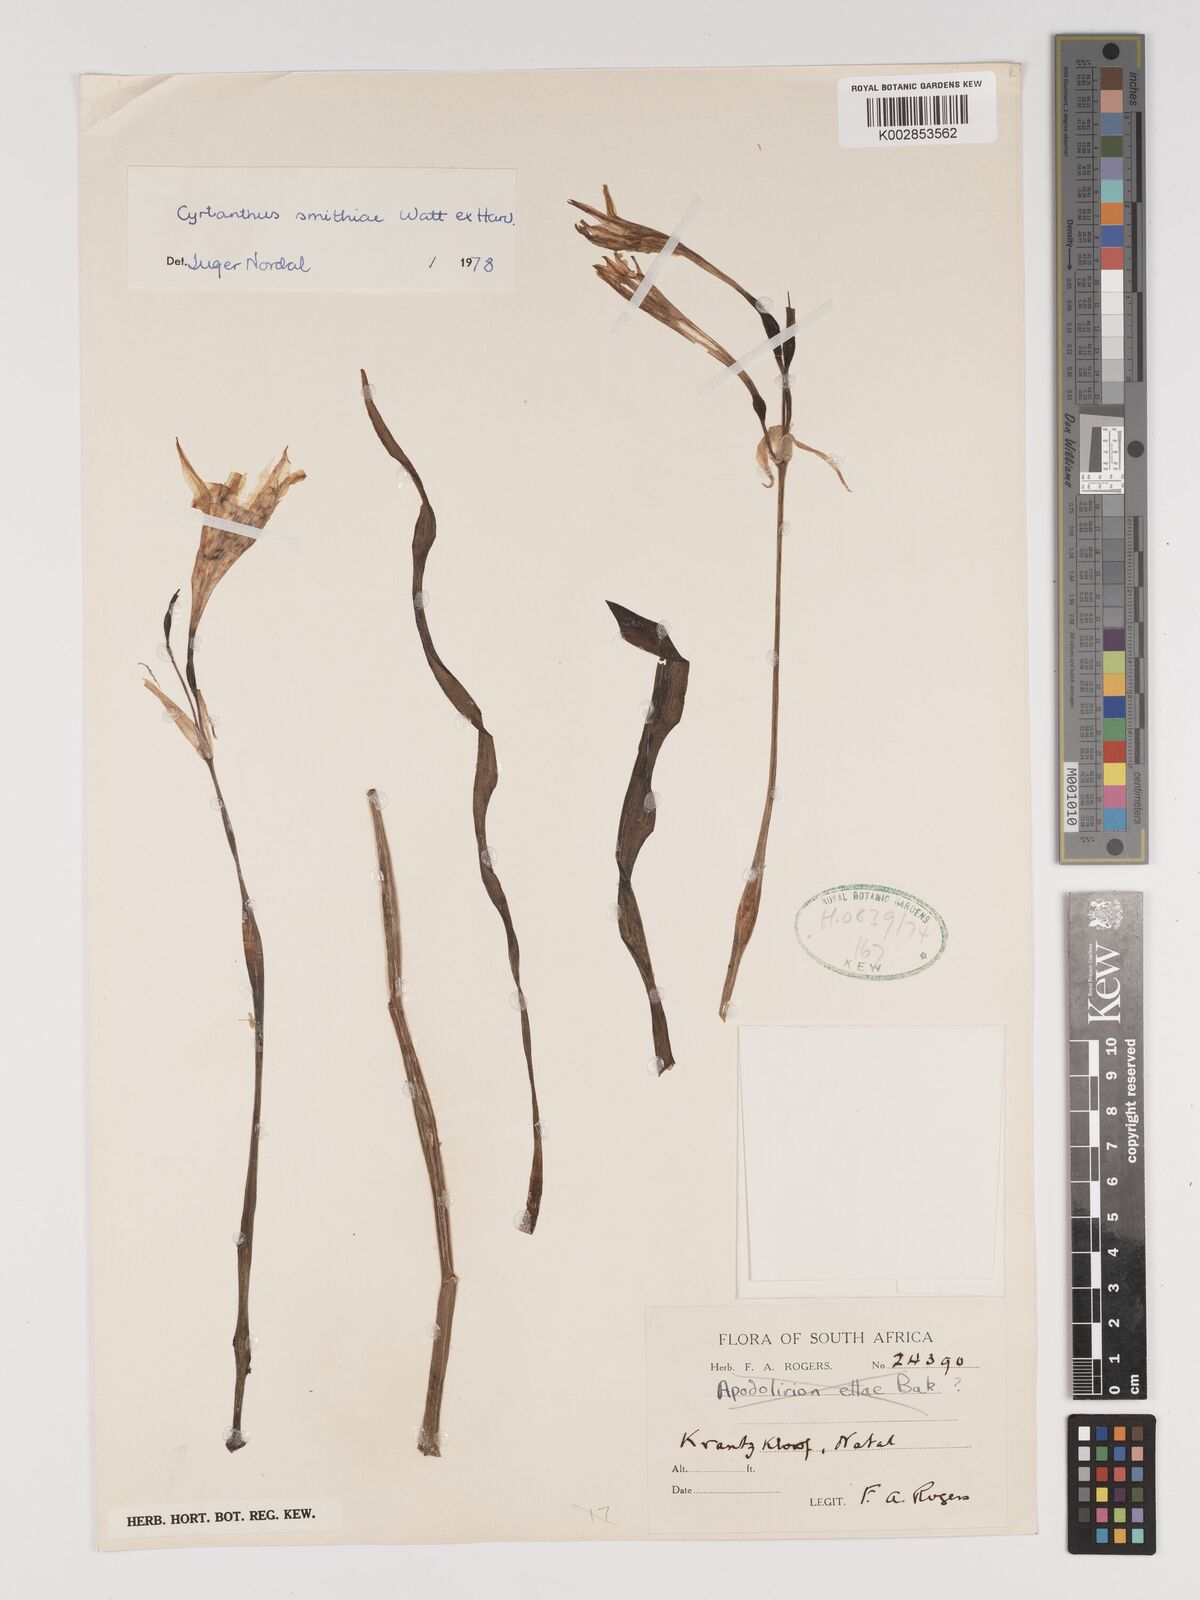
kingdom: Plantae
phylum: Tracheophyta
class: Liliopsida
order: Asparagales
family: Amaryllidaceae
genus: Cyrtanthus
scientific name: Cyrtanthus smithiae
